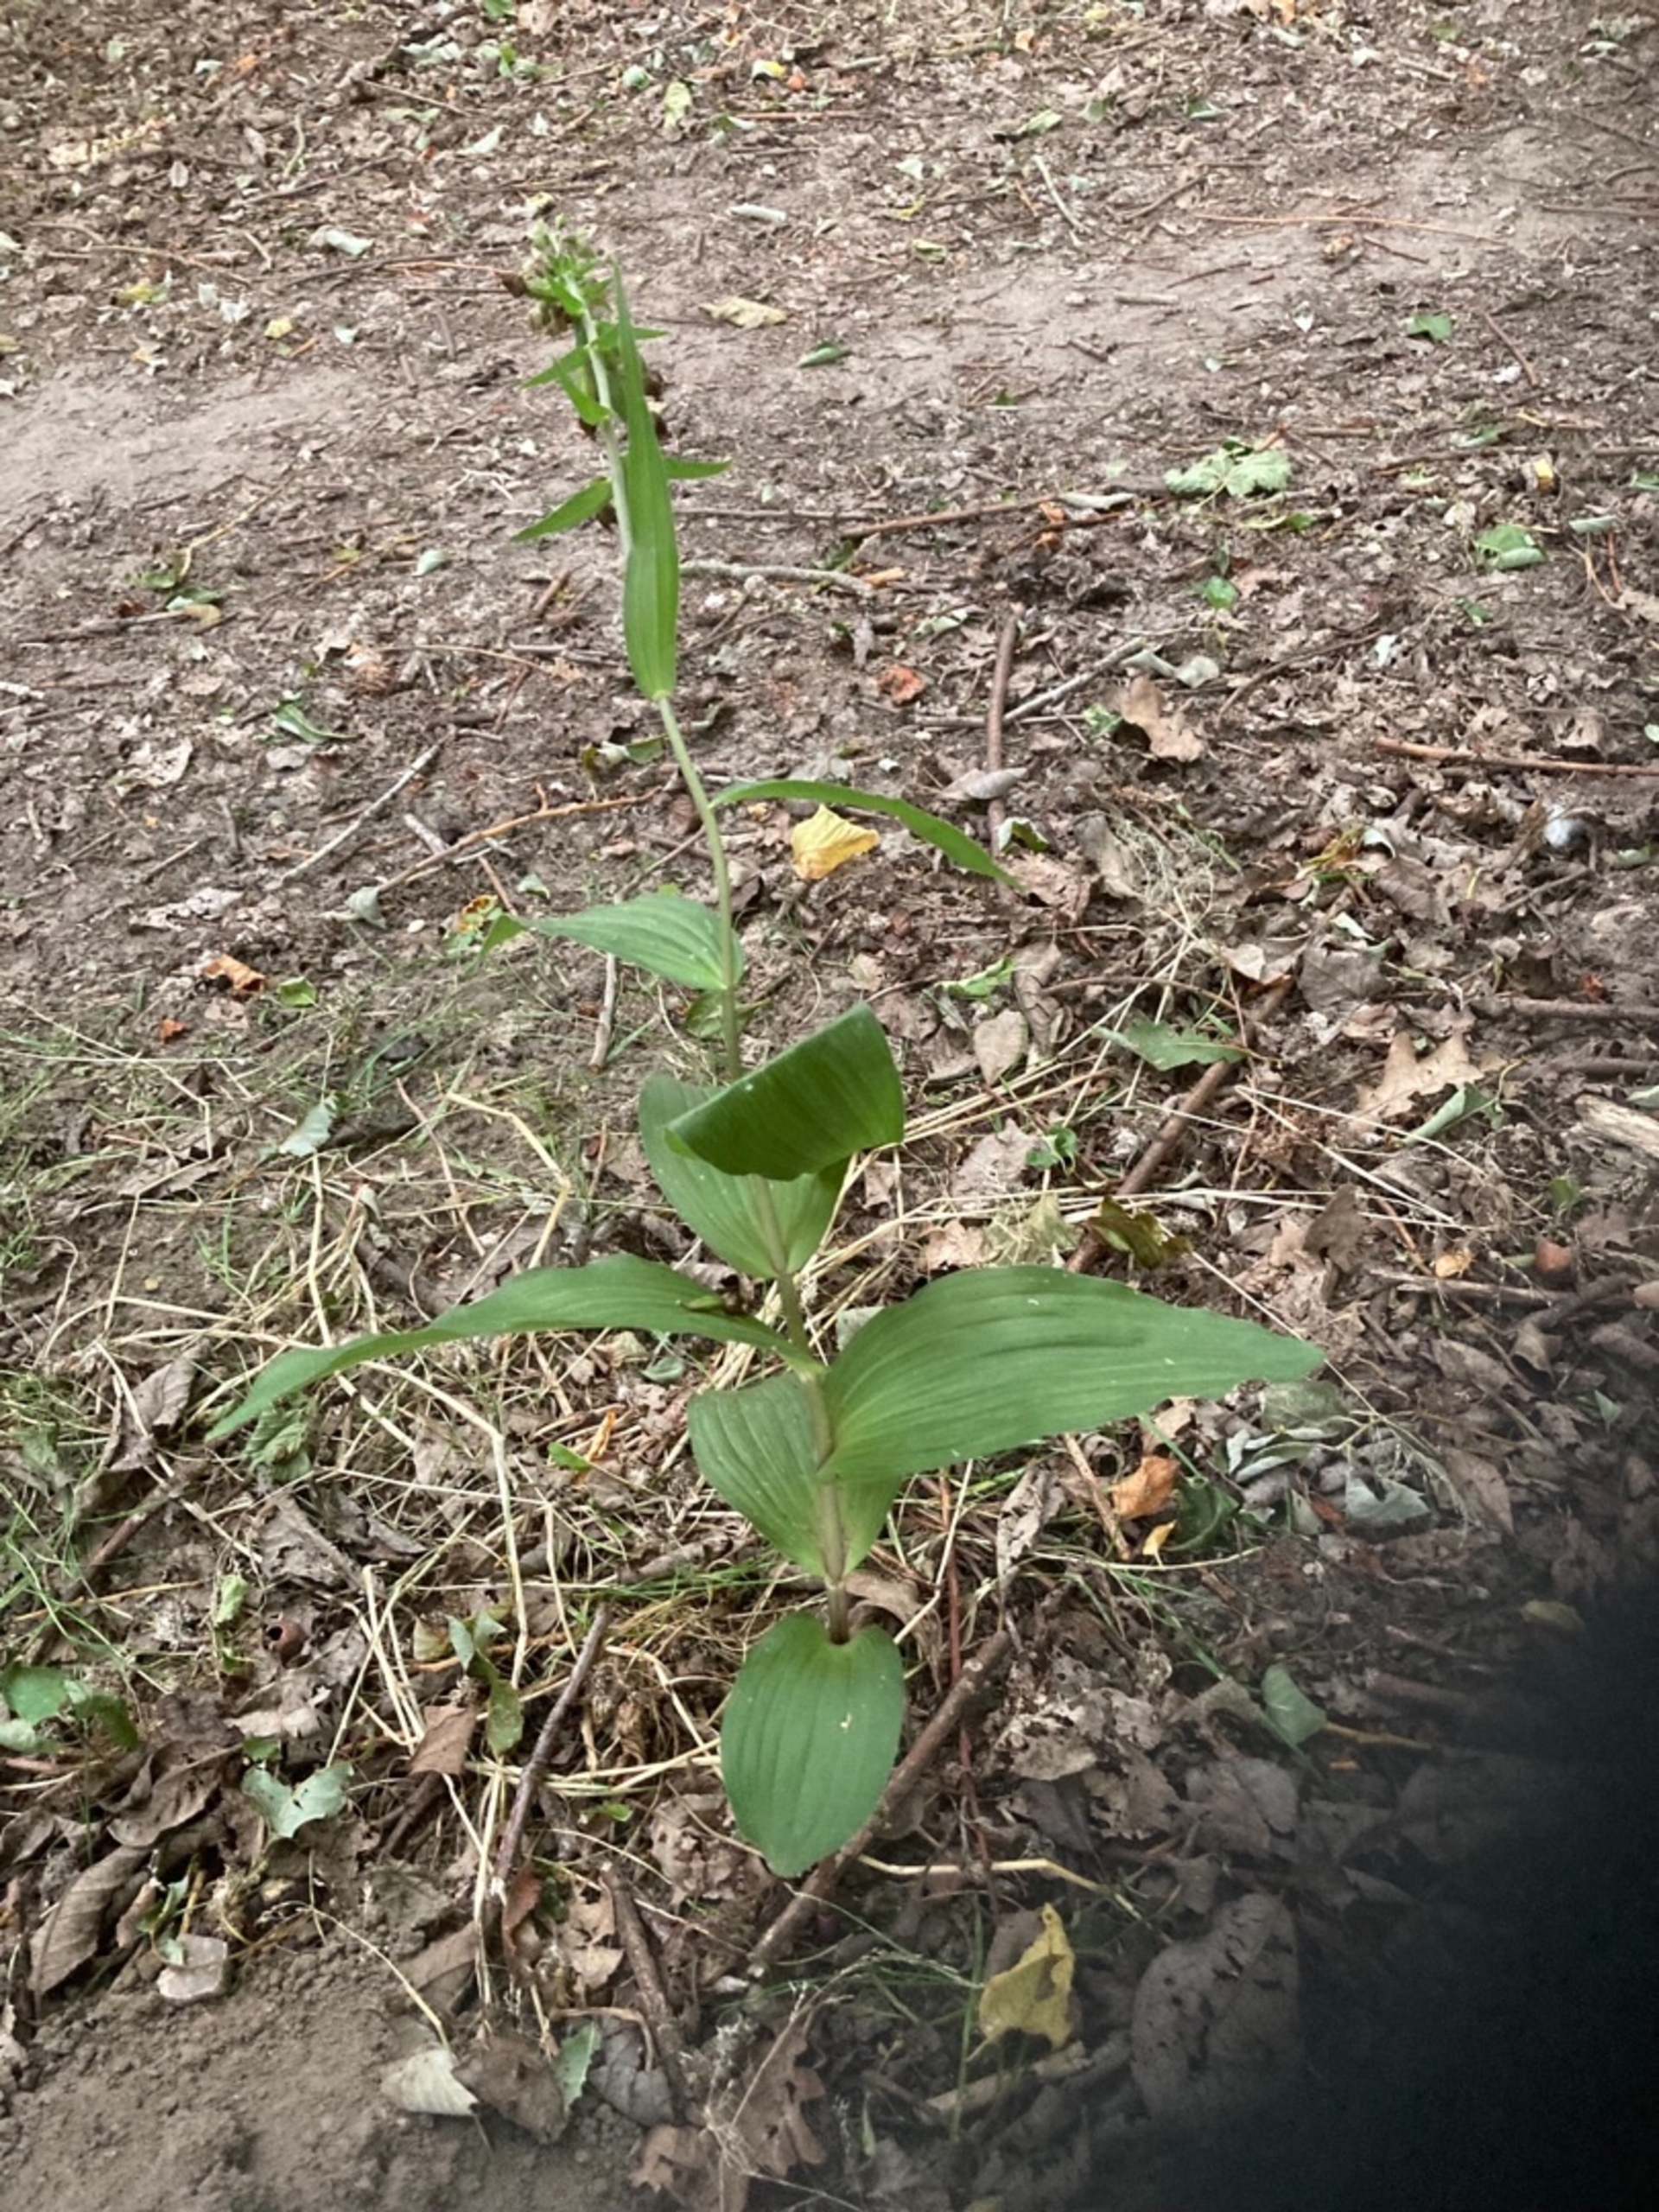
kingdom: Plantae
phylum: Tracheophyta
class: Liliopsida
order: Asparagales
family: Orchidaceae
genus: Epipactis
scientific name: Epipactis helleborine
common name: Skov-hullæbe
